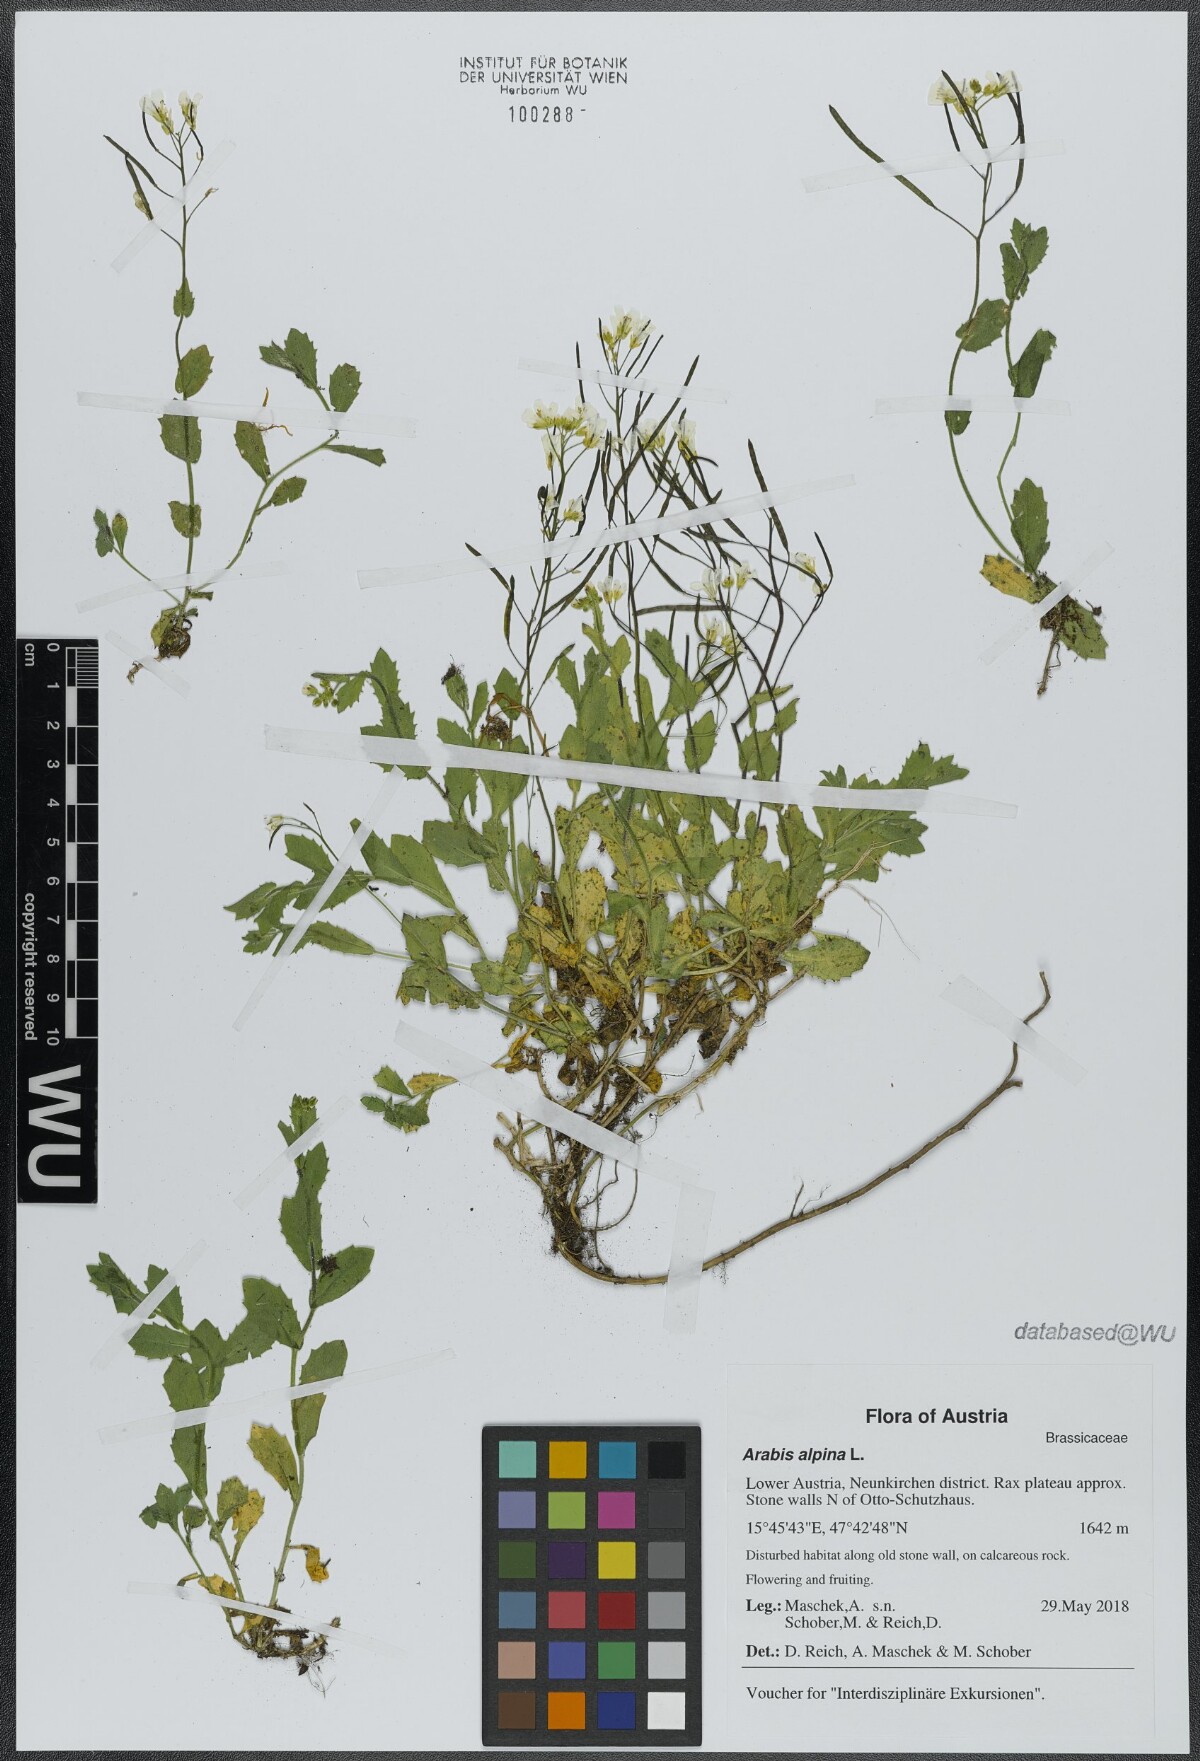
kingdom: Plantae
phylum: Tracheophyta
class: Magnoliopsida
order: Brassicales
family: Brassicaceae
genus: Arabis
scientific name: Arabis alpina
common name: Alpine rock-cress
